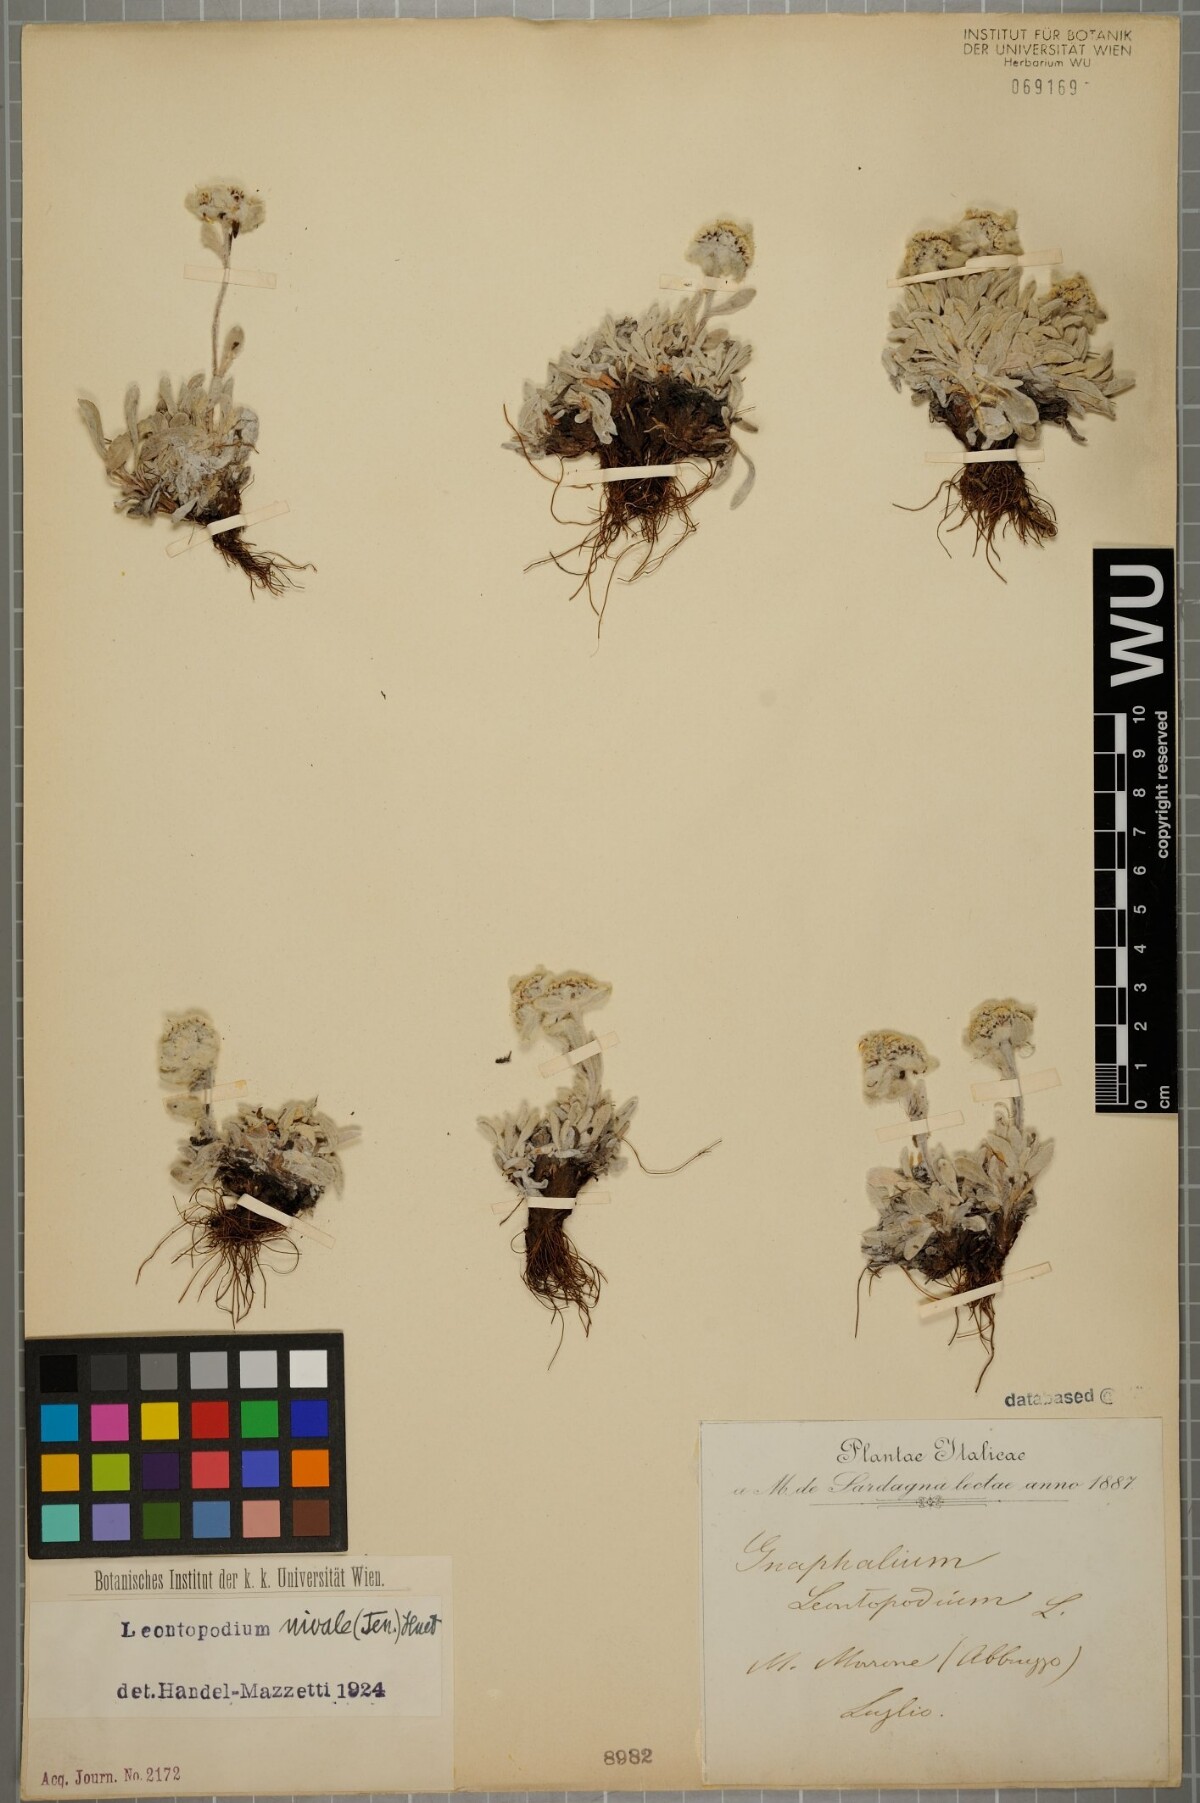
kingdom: Plantae
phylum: Tracheophyta
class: Magnoliopsida
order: Asterales
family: Asteraceae
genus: Leontopodium
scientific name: Leontopodium nivale
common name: Edelweiss
